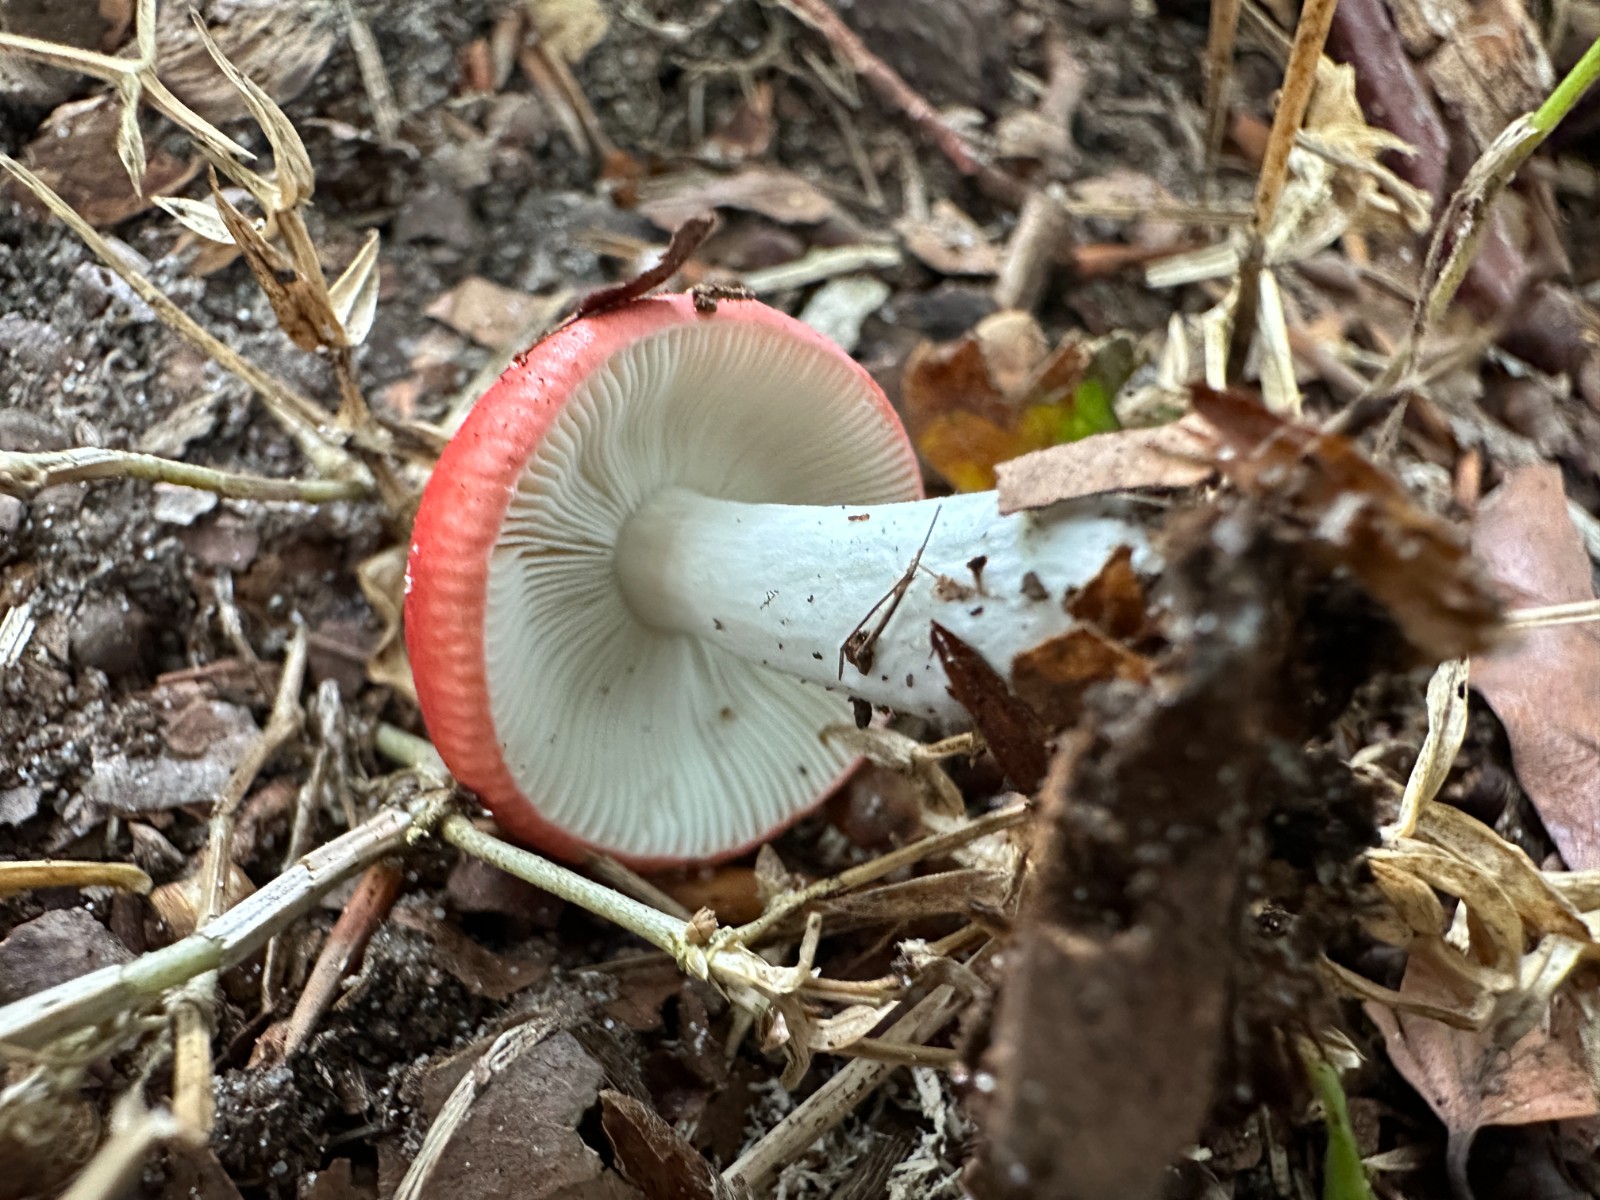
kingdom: Fungi
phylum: Basidiomycota
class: Agaricomycetes
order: Russulales
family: Russulaceae
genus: Russula
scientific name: Russula nobilis
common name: lille gift-skørhat
